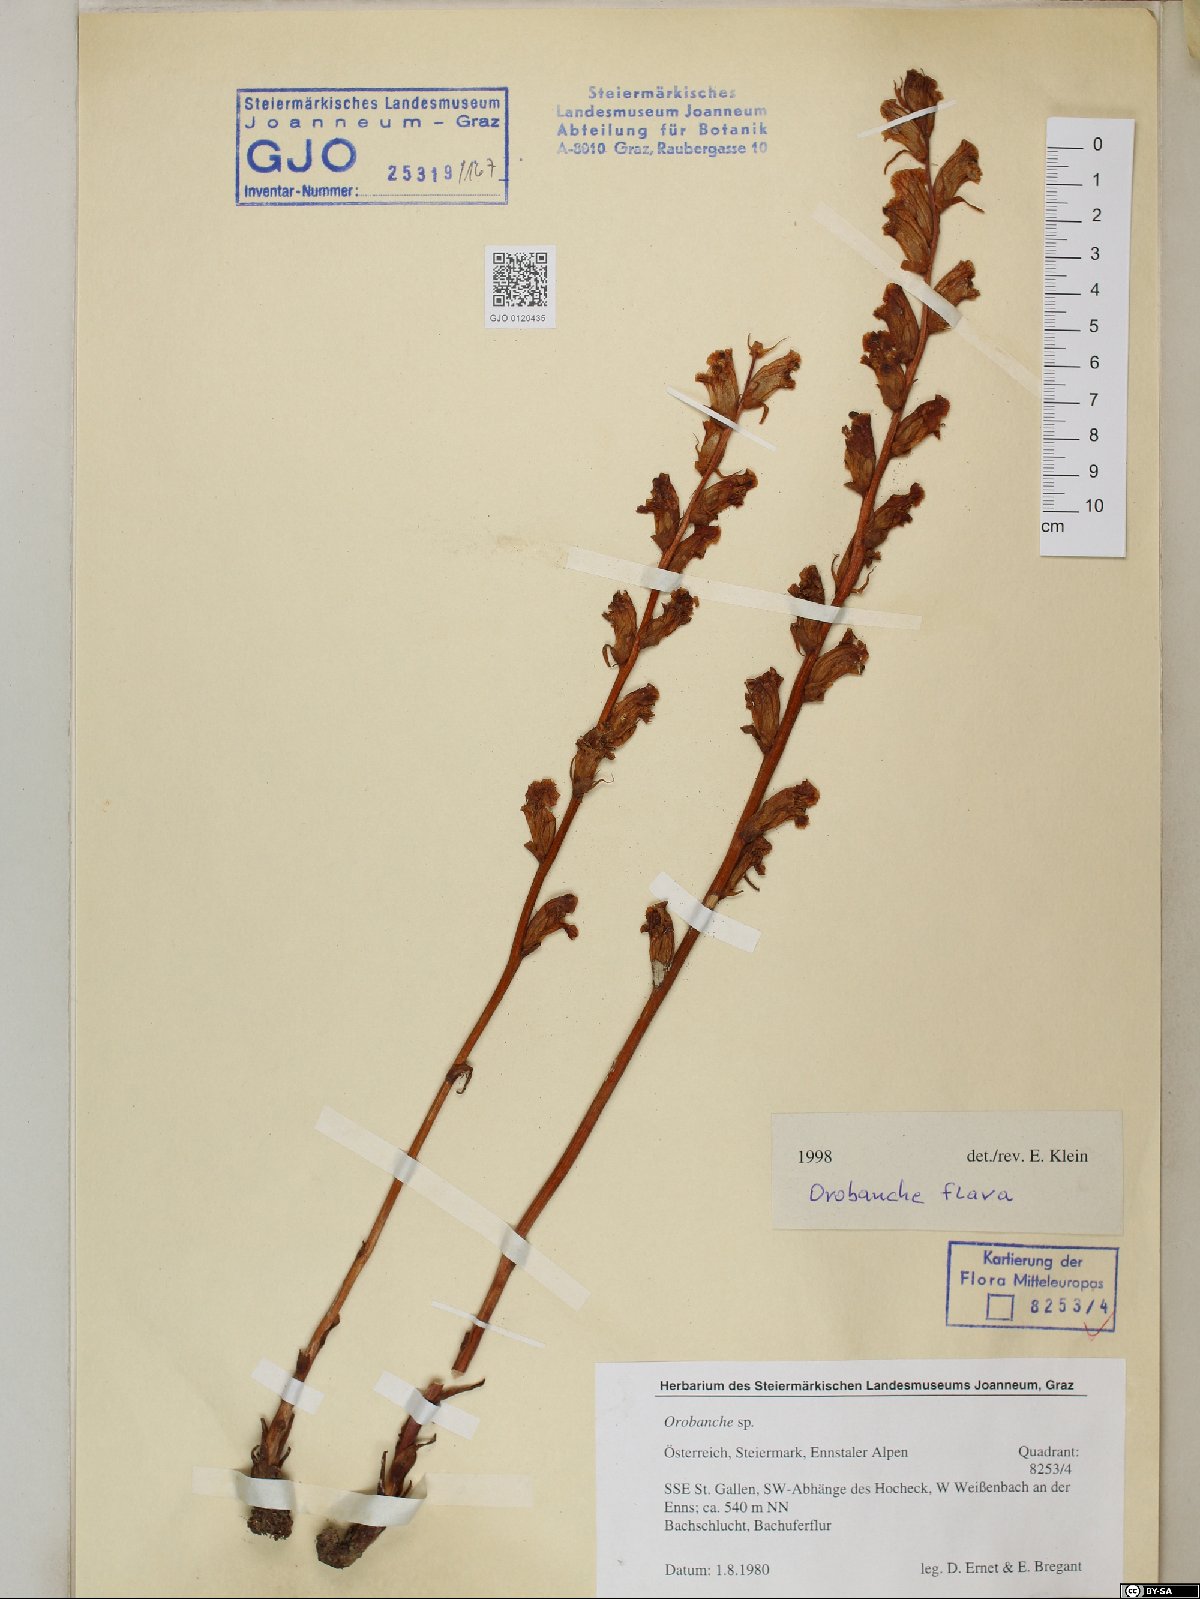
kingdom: Plantae
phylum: Tracheophyta
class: Magnoliopsida
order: Lamiales
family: Orobanchaceae
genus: Orobanche
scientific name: Orobanche flava
